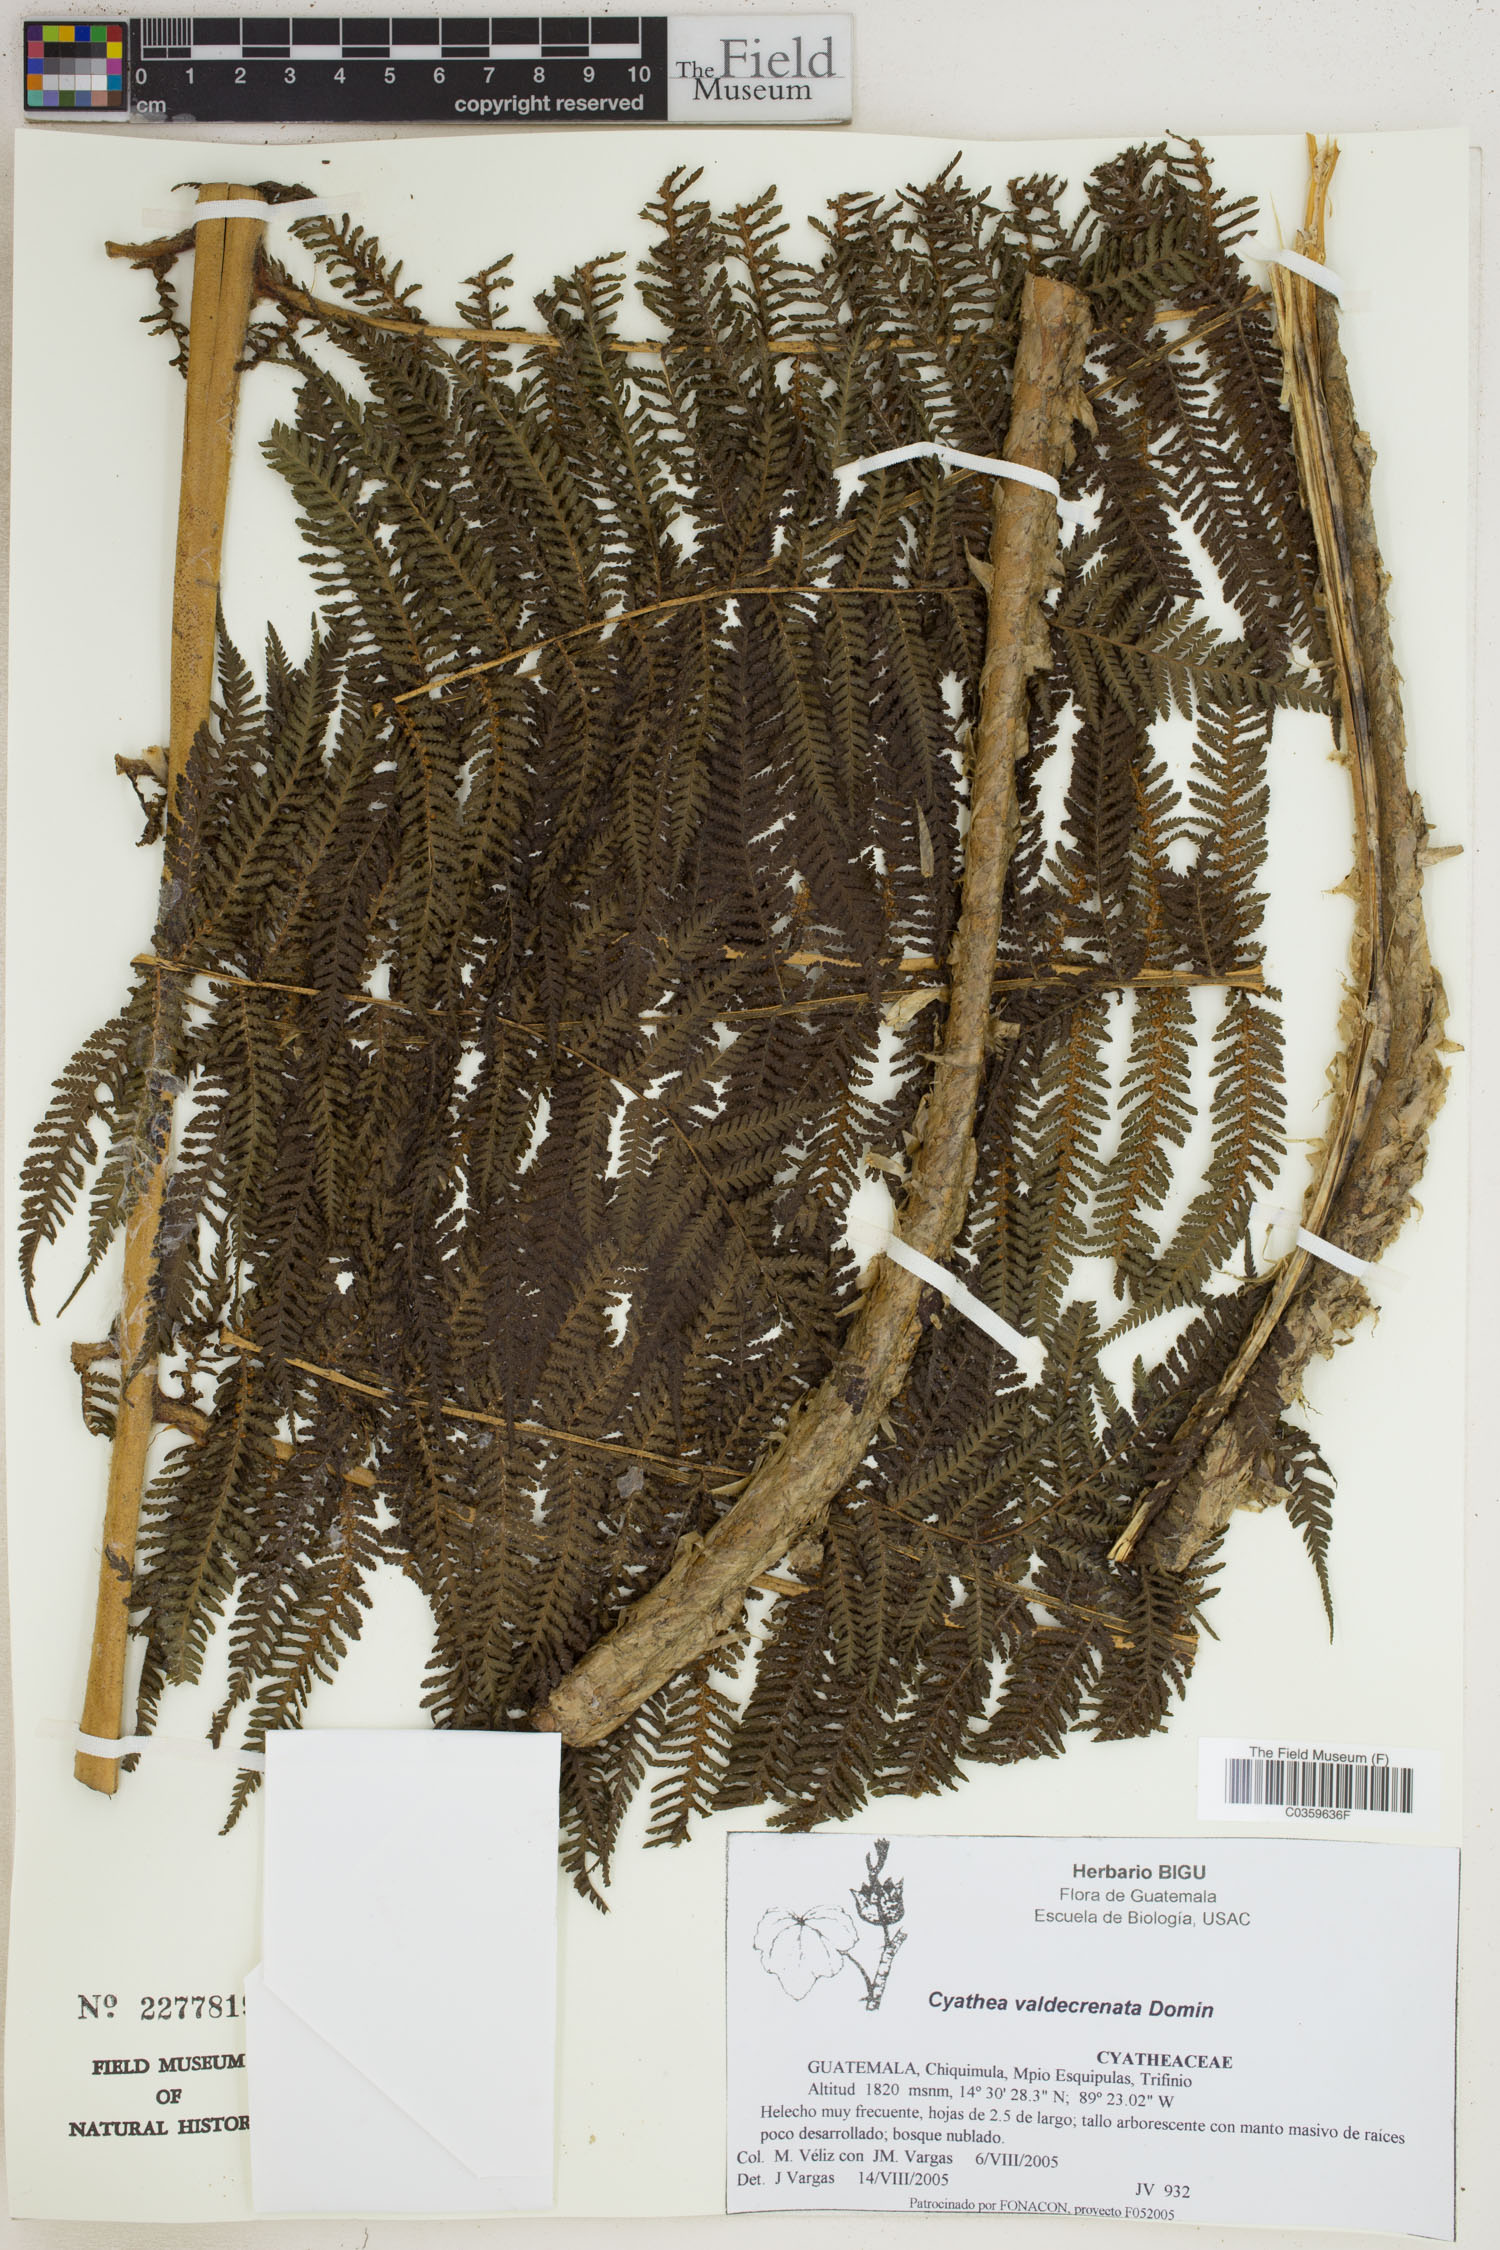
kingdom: Plantae
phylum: Tracheophyta
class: Polypodiopsida
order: Cyatheales
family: Cyatheaceae
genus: Cyathea
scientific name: Cyathea godmanii
